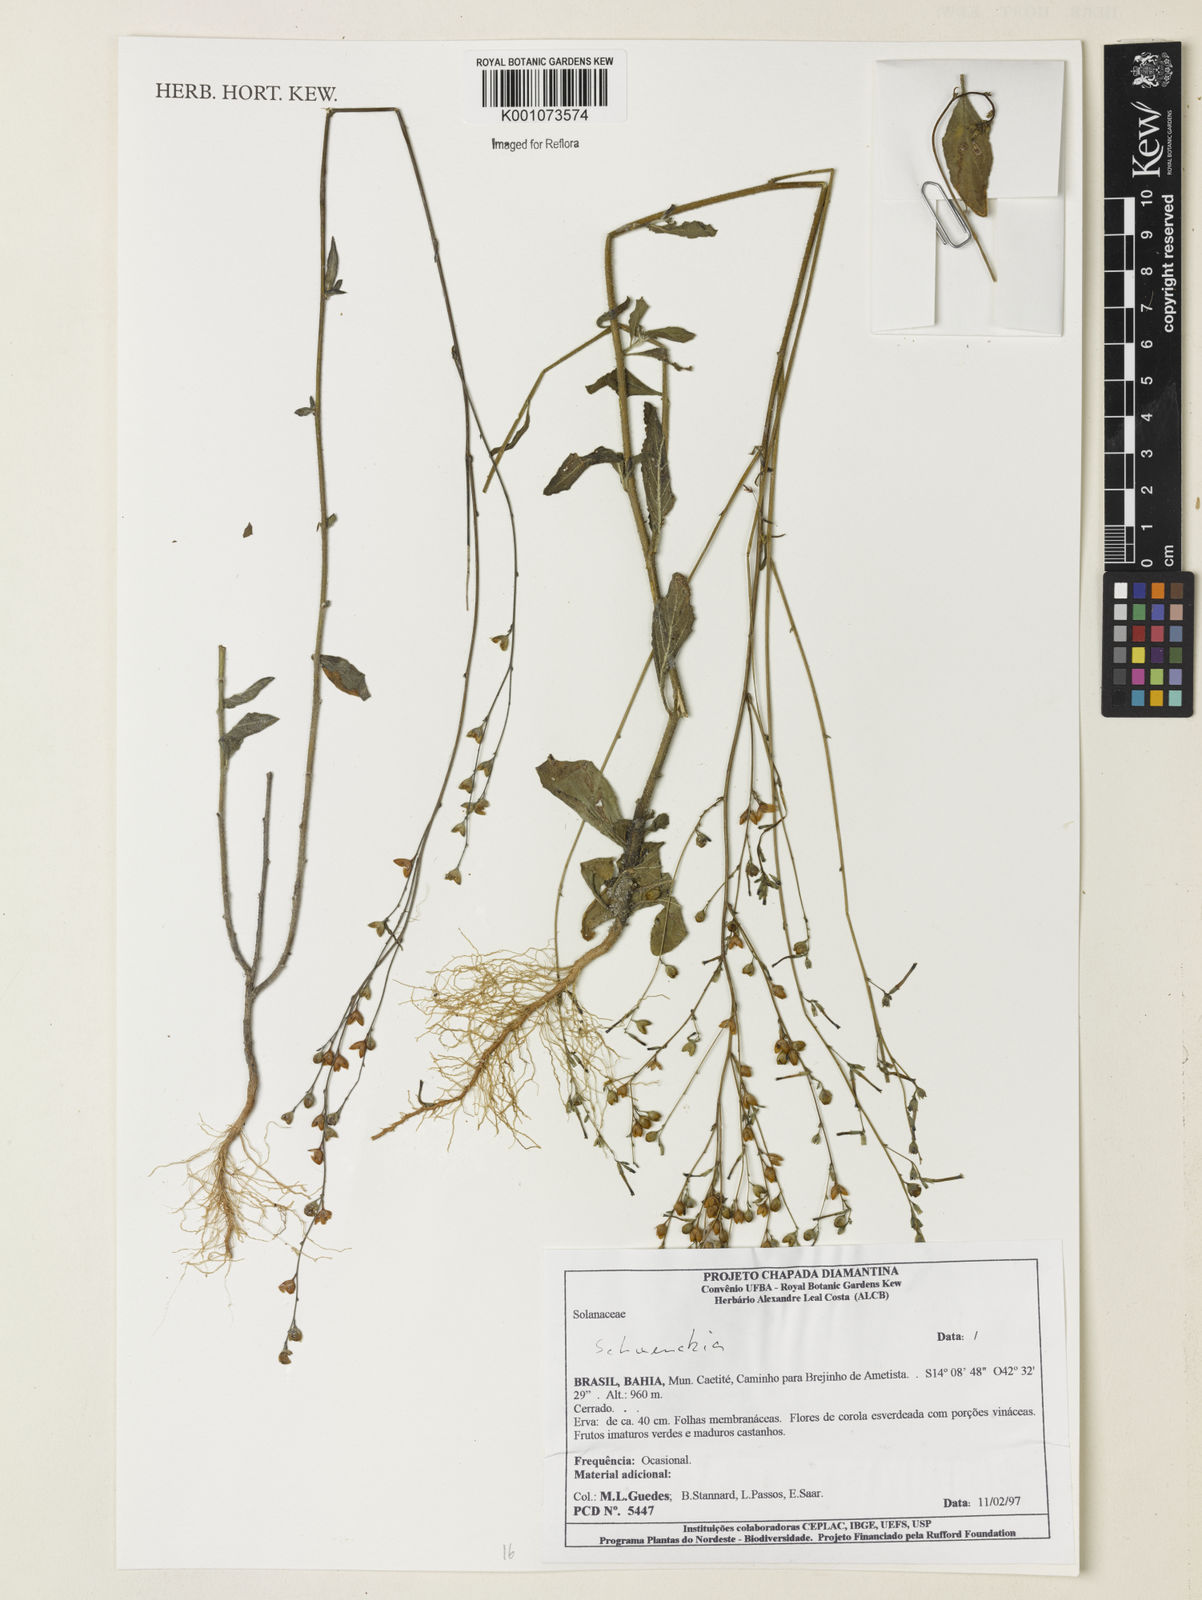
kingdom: Plantae
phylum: Tracheophyta
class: Magnoliopsida
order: Solanales
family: Solanaceae
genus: Schwenckia
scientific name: Schwenckia
